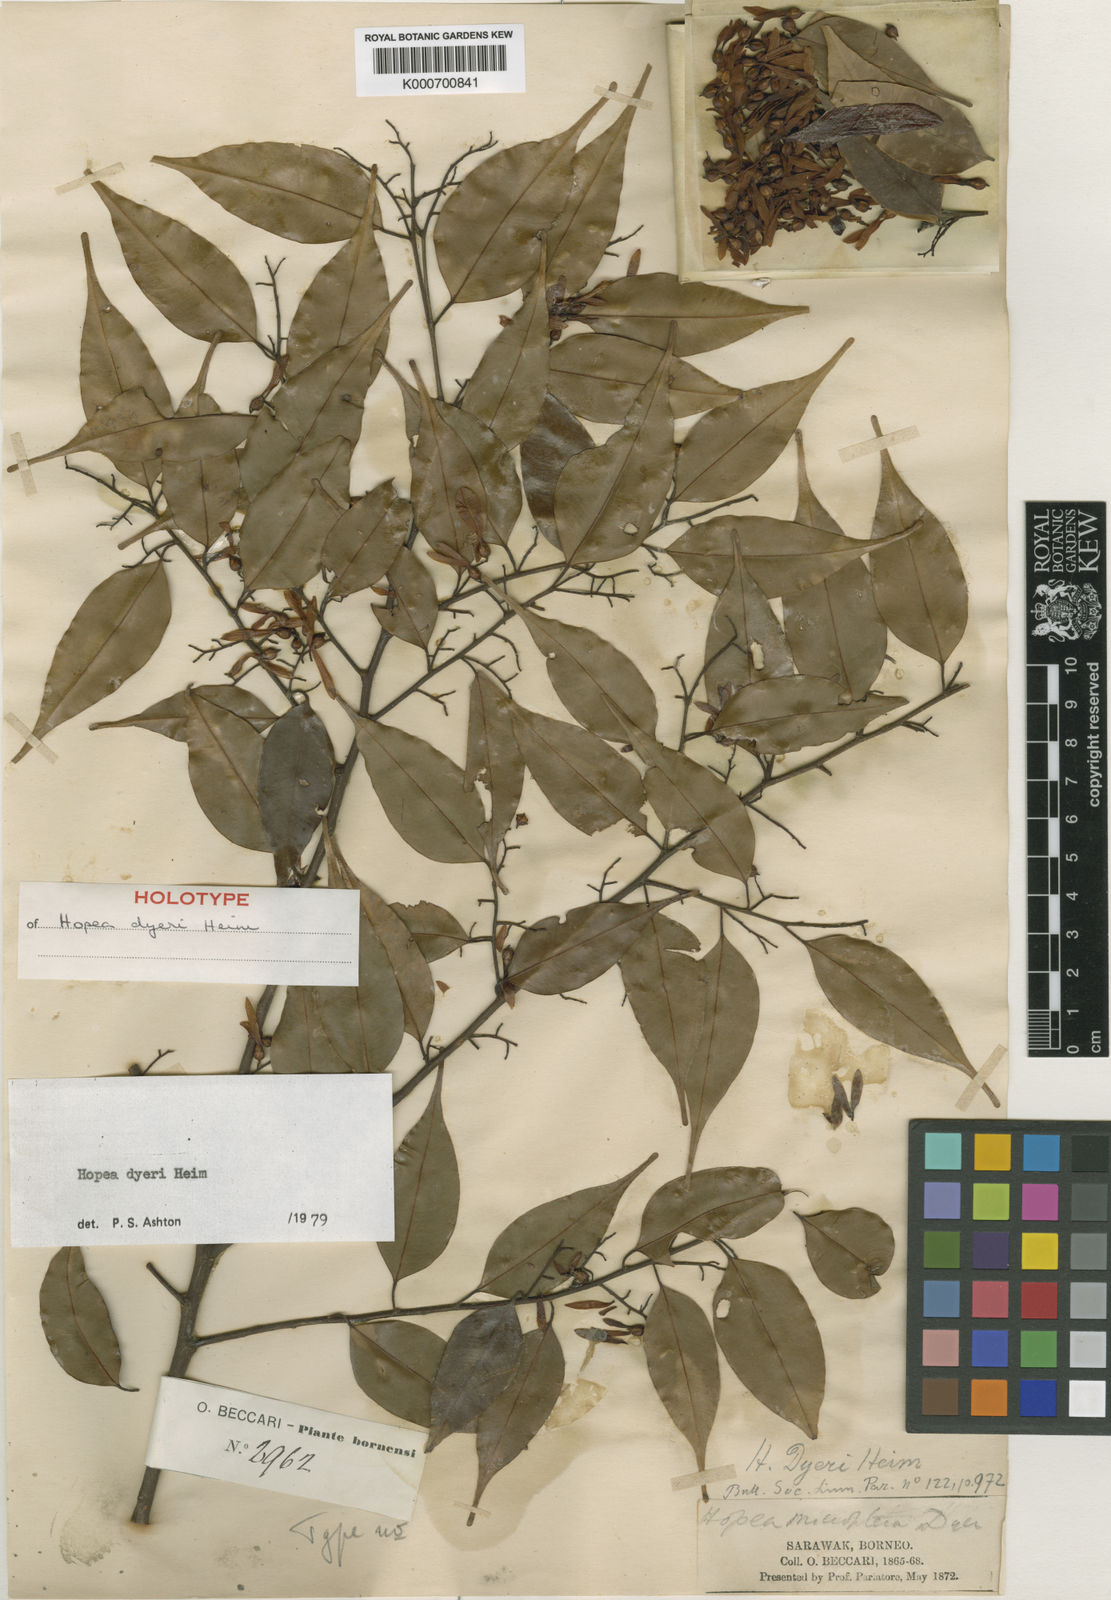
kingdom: Plantae
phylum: Tracheophyta
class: Magnoliopsida
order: Malvales
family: Dipterocarpaceae
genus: Hopea
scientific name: Hopea dyeri
